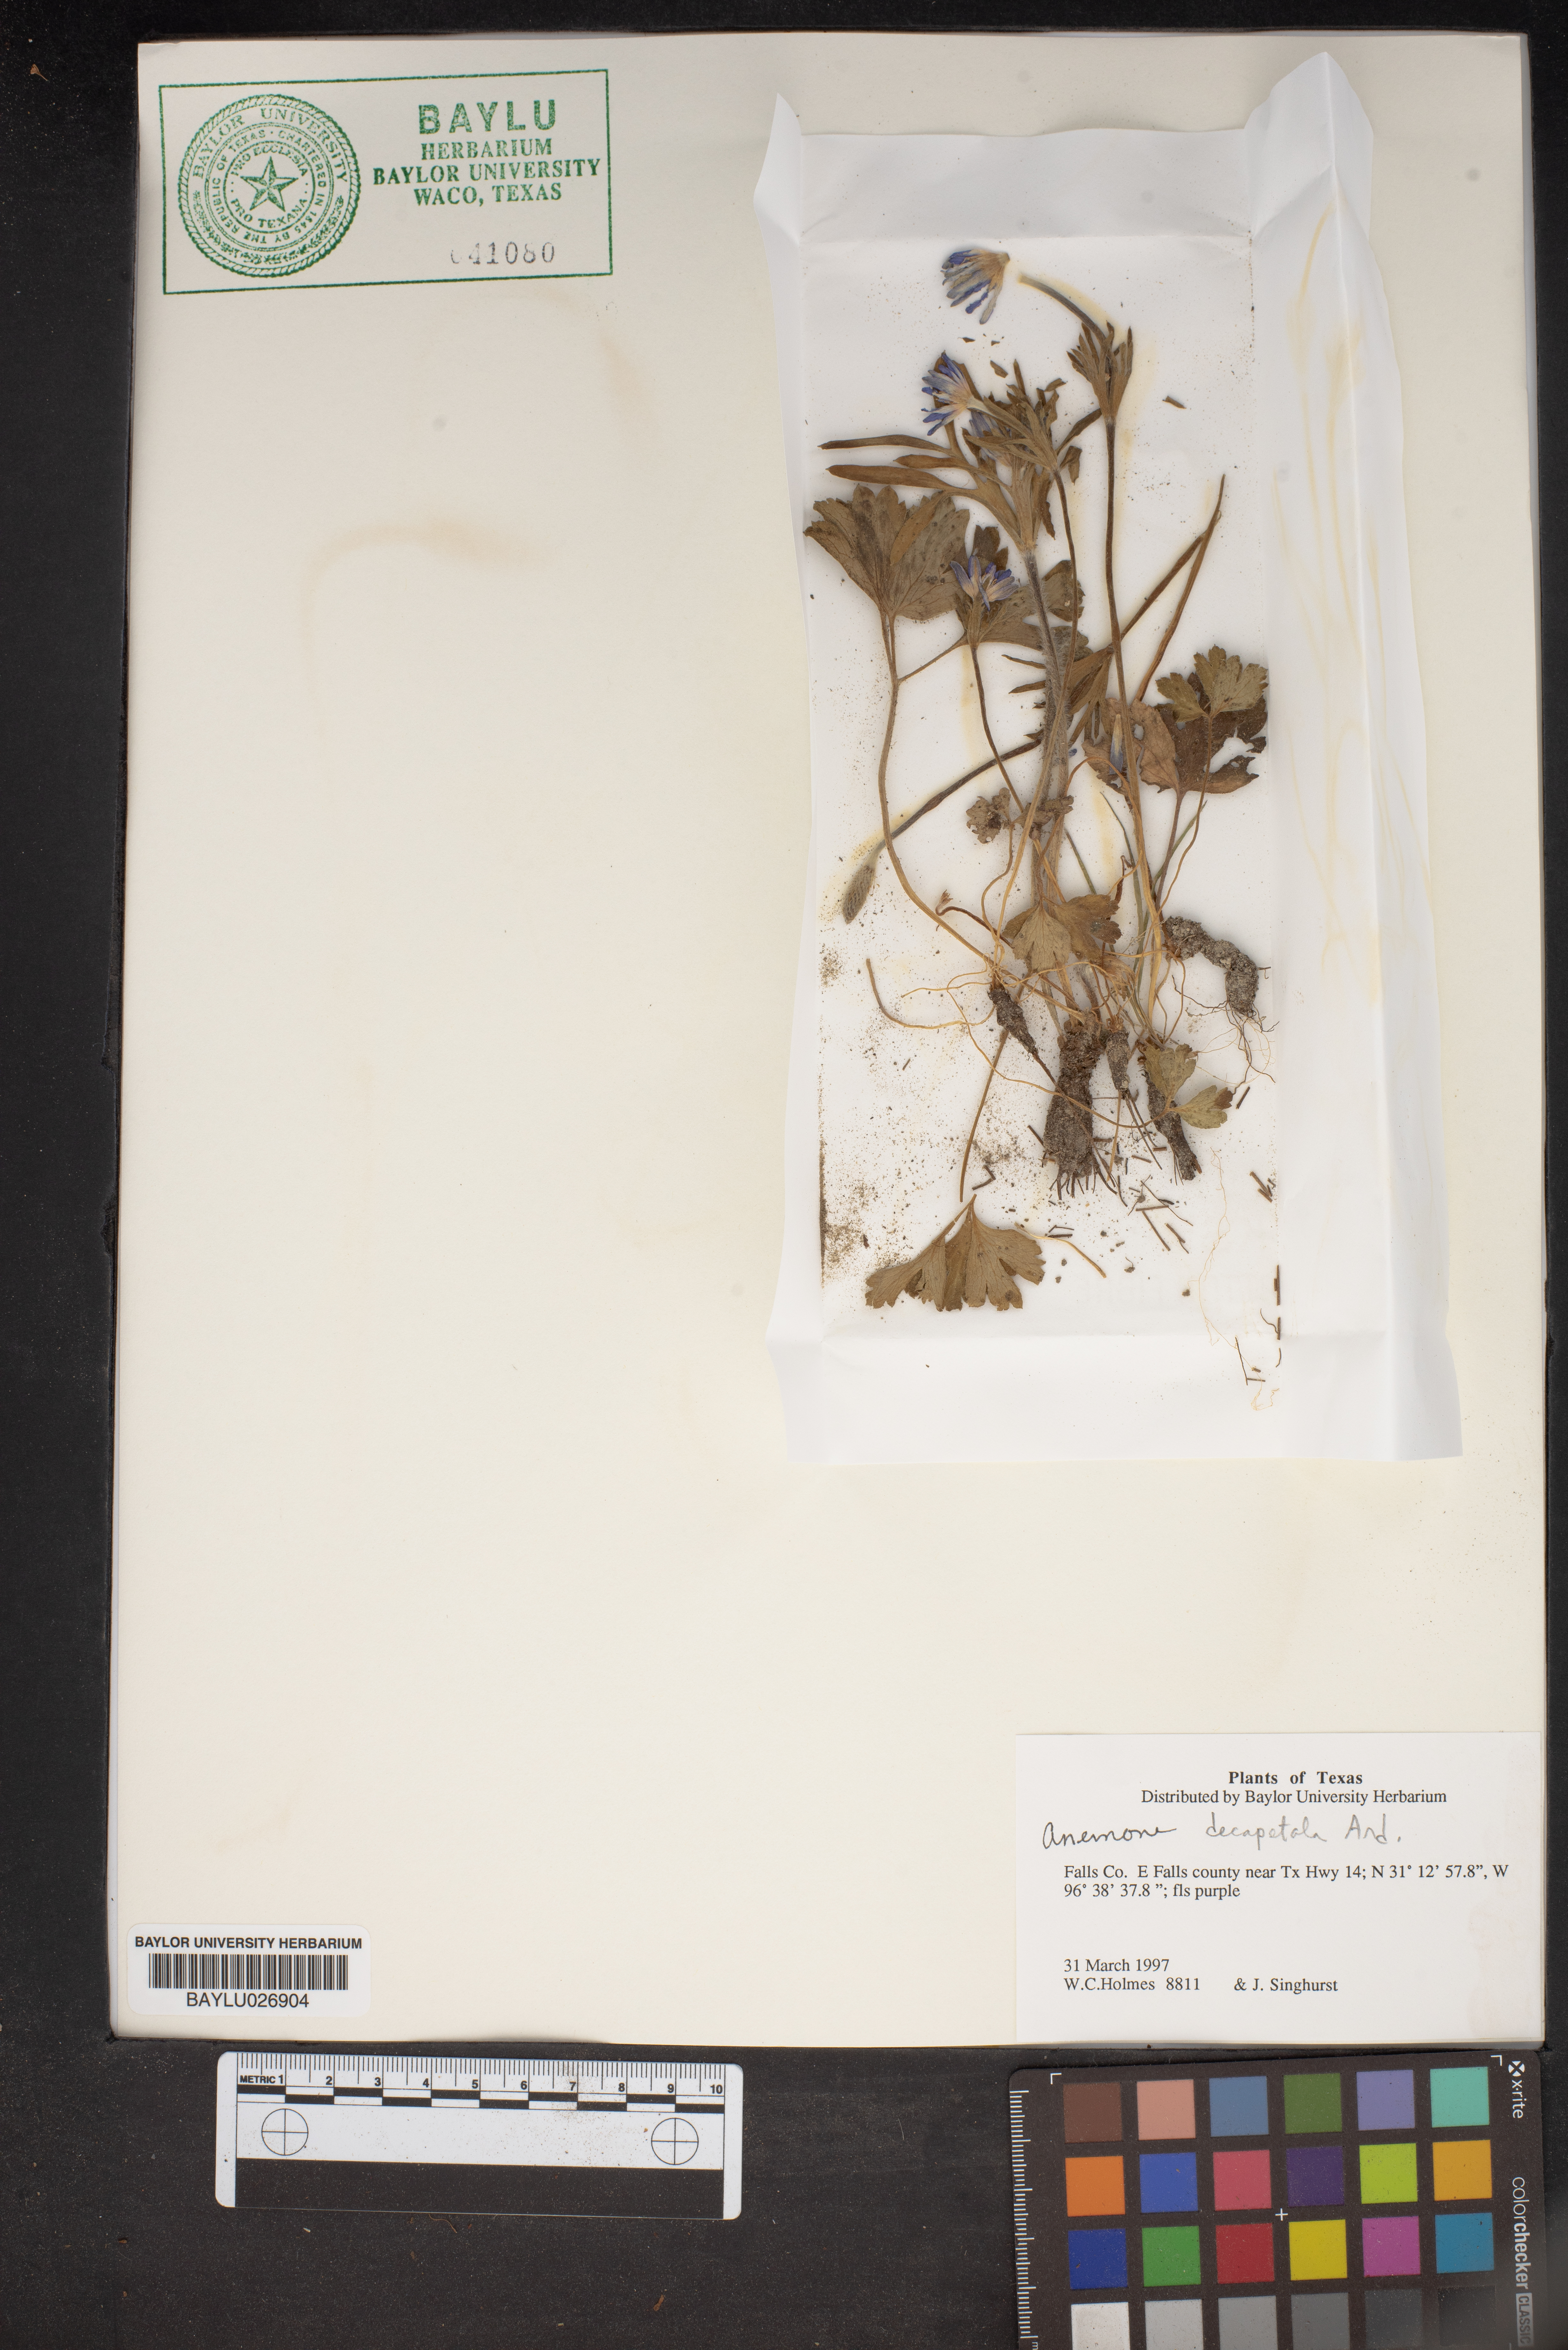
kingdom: Plantae
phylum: Tracheophyta
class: Magnoliopsida
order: Ranunculales
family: Ranunculaceae
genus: Anemone
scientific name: Anemone decapetala
